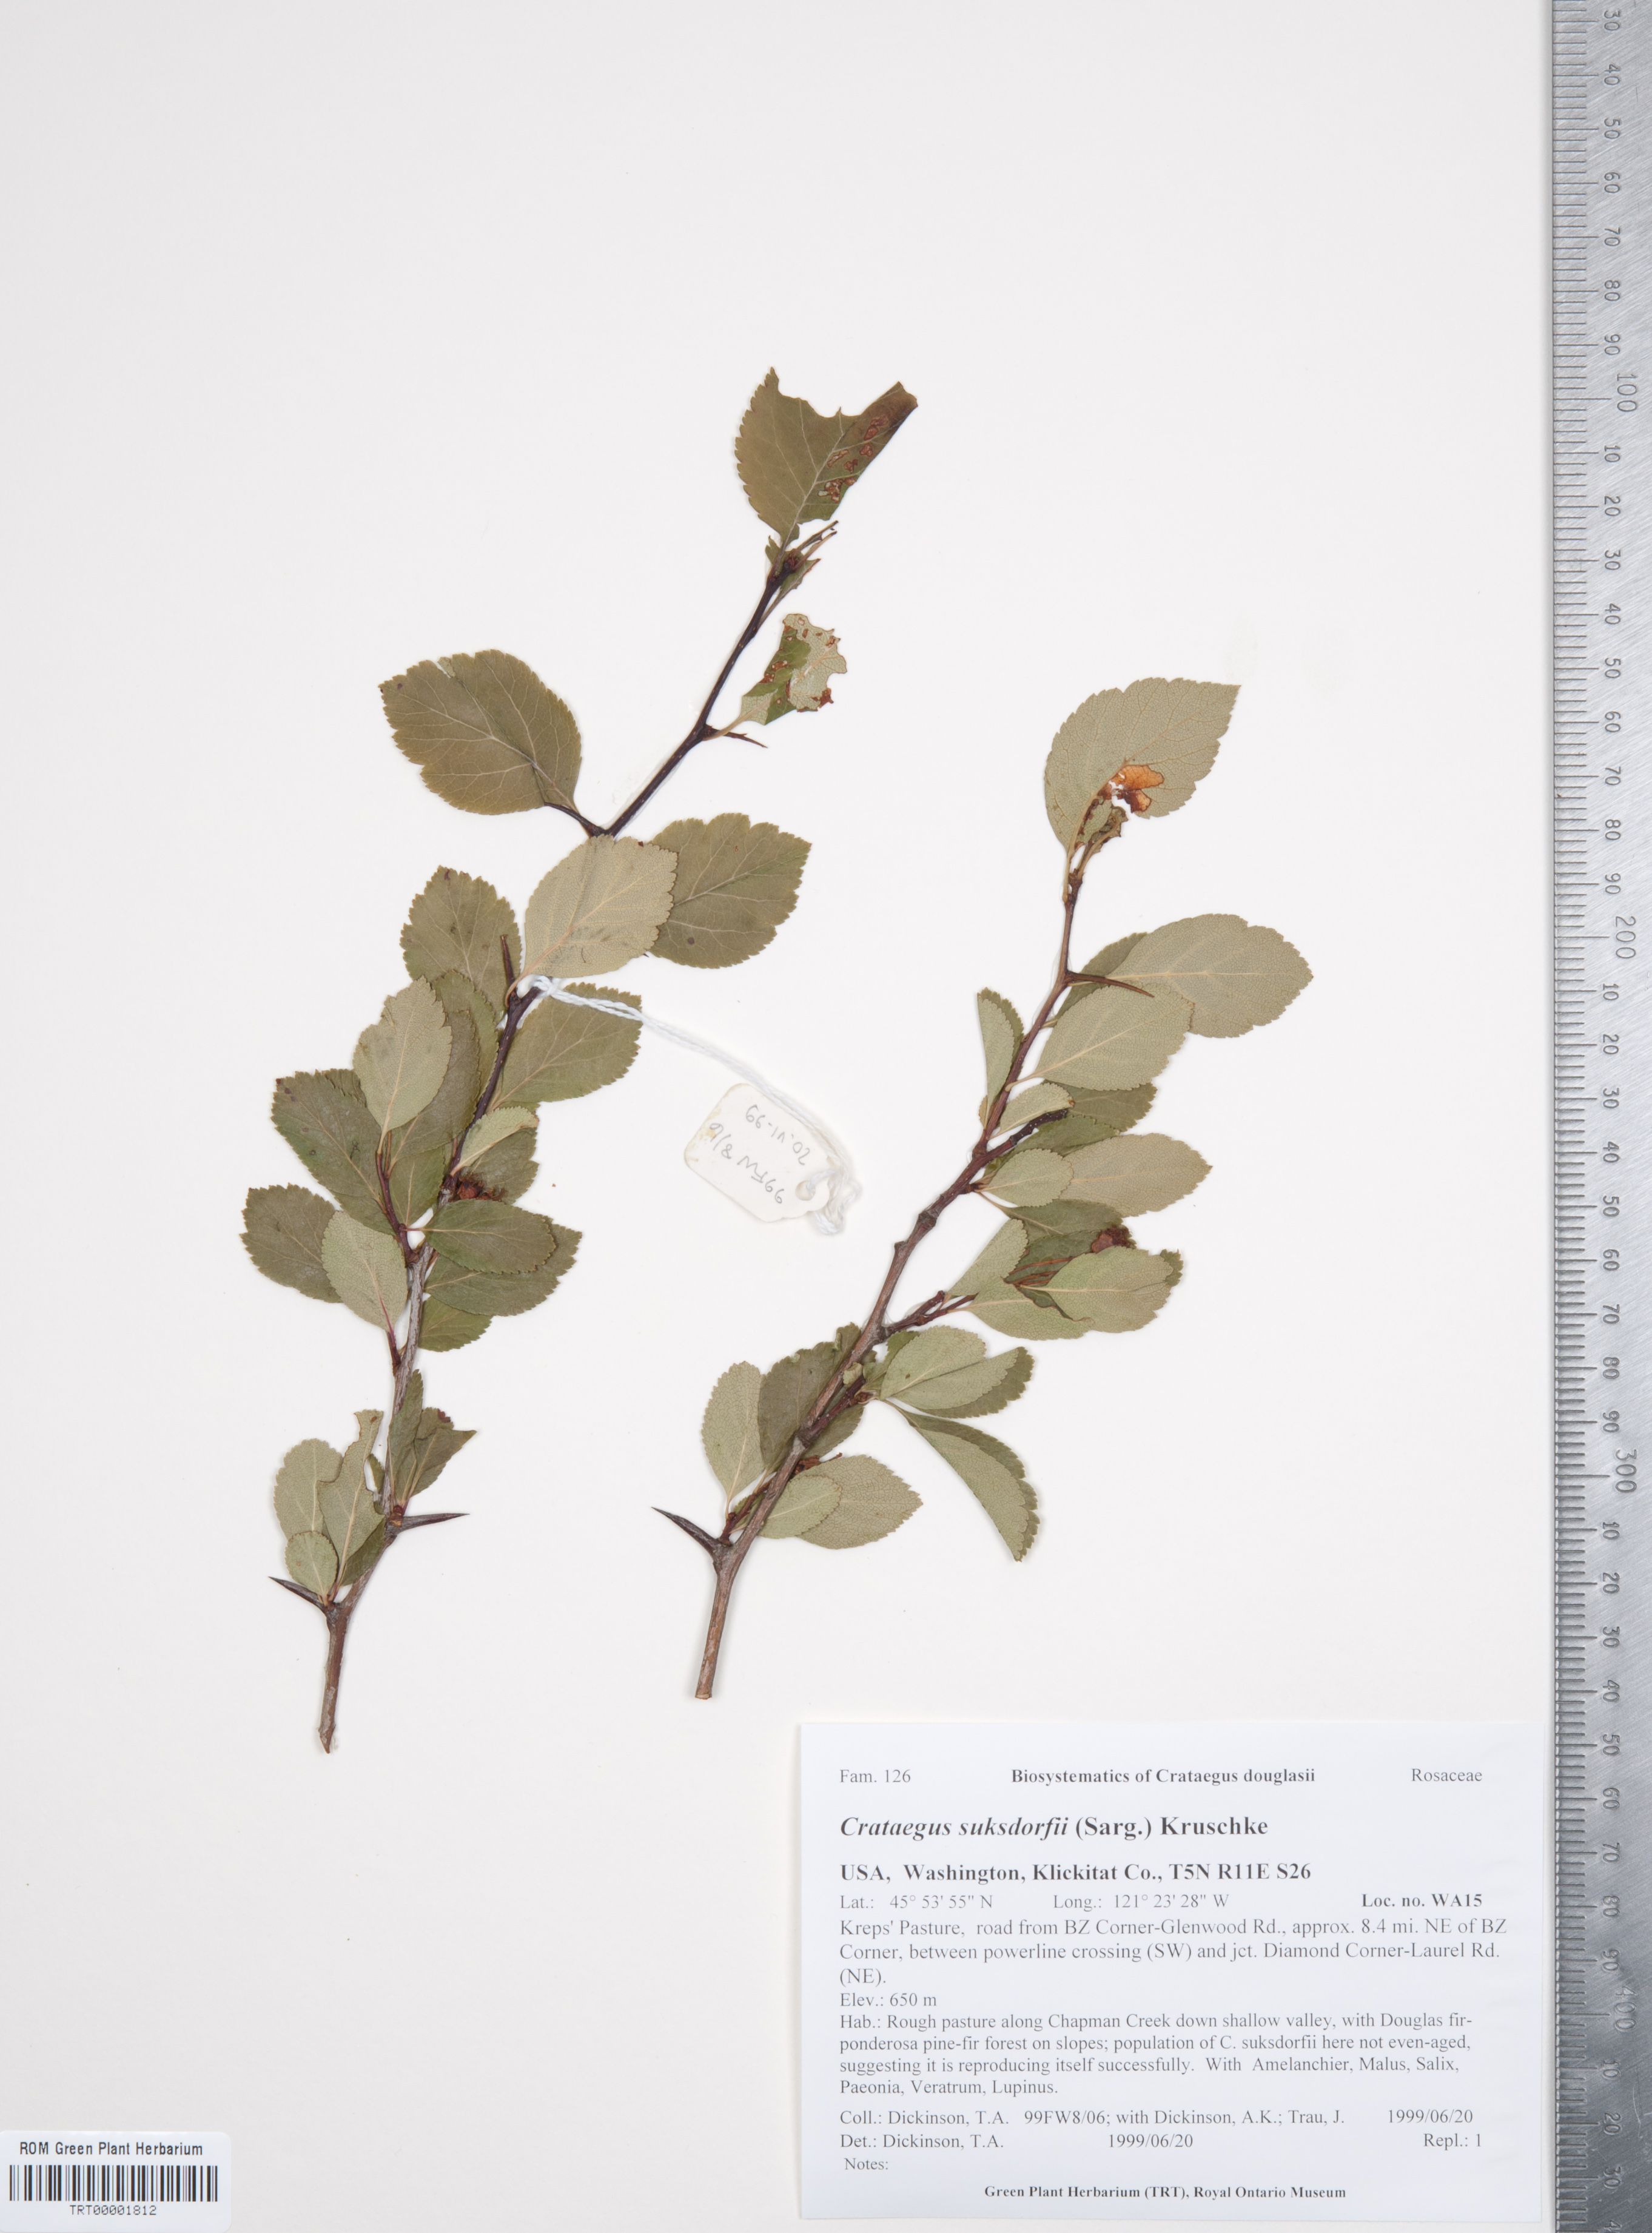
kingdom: Plantae
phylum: Tracheophyta
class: Magnoliopsida
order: Rosales
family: Rosaceae
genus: Crataegus
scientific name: Crataegus gaylussacia
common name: Huckleberry hawthorn
